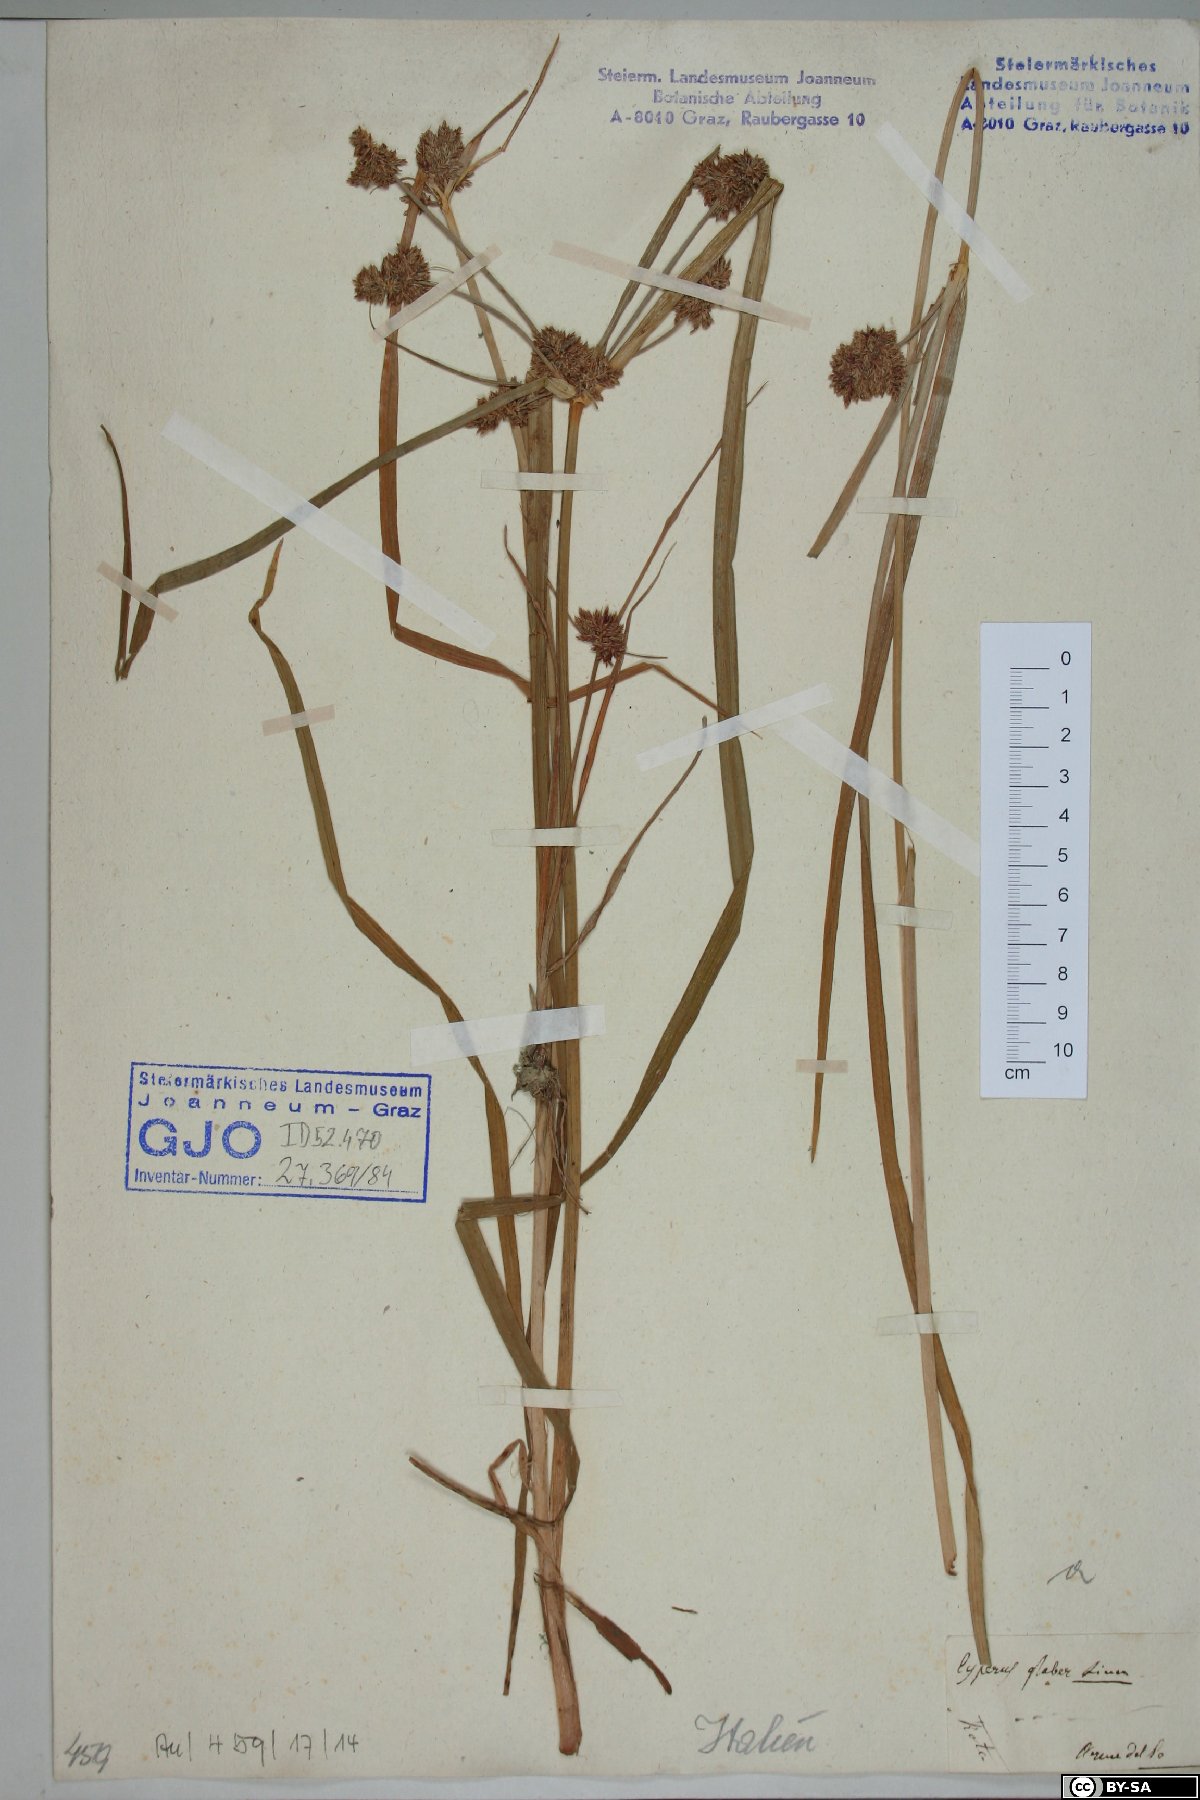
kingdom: Plantae
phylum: Tracheophyta
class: Liliopsida
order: Poales
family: Cyperaceae
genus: Cyperus
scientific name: Cyperus glaber
